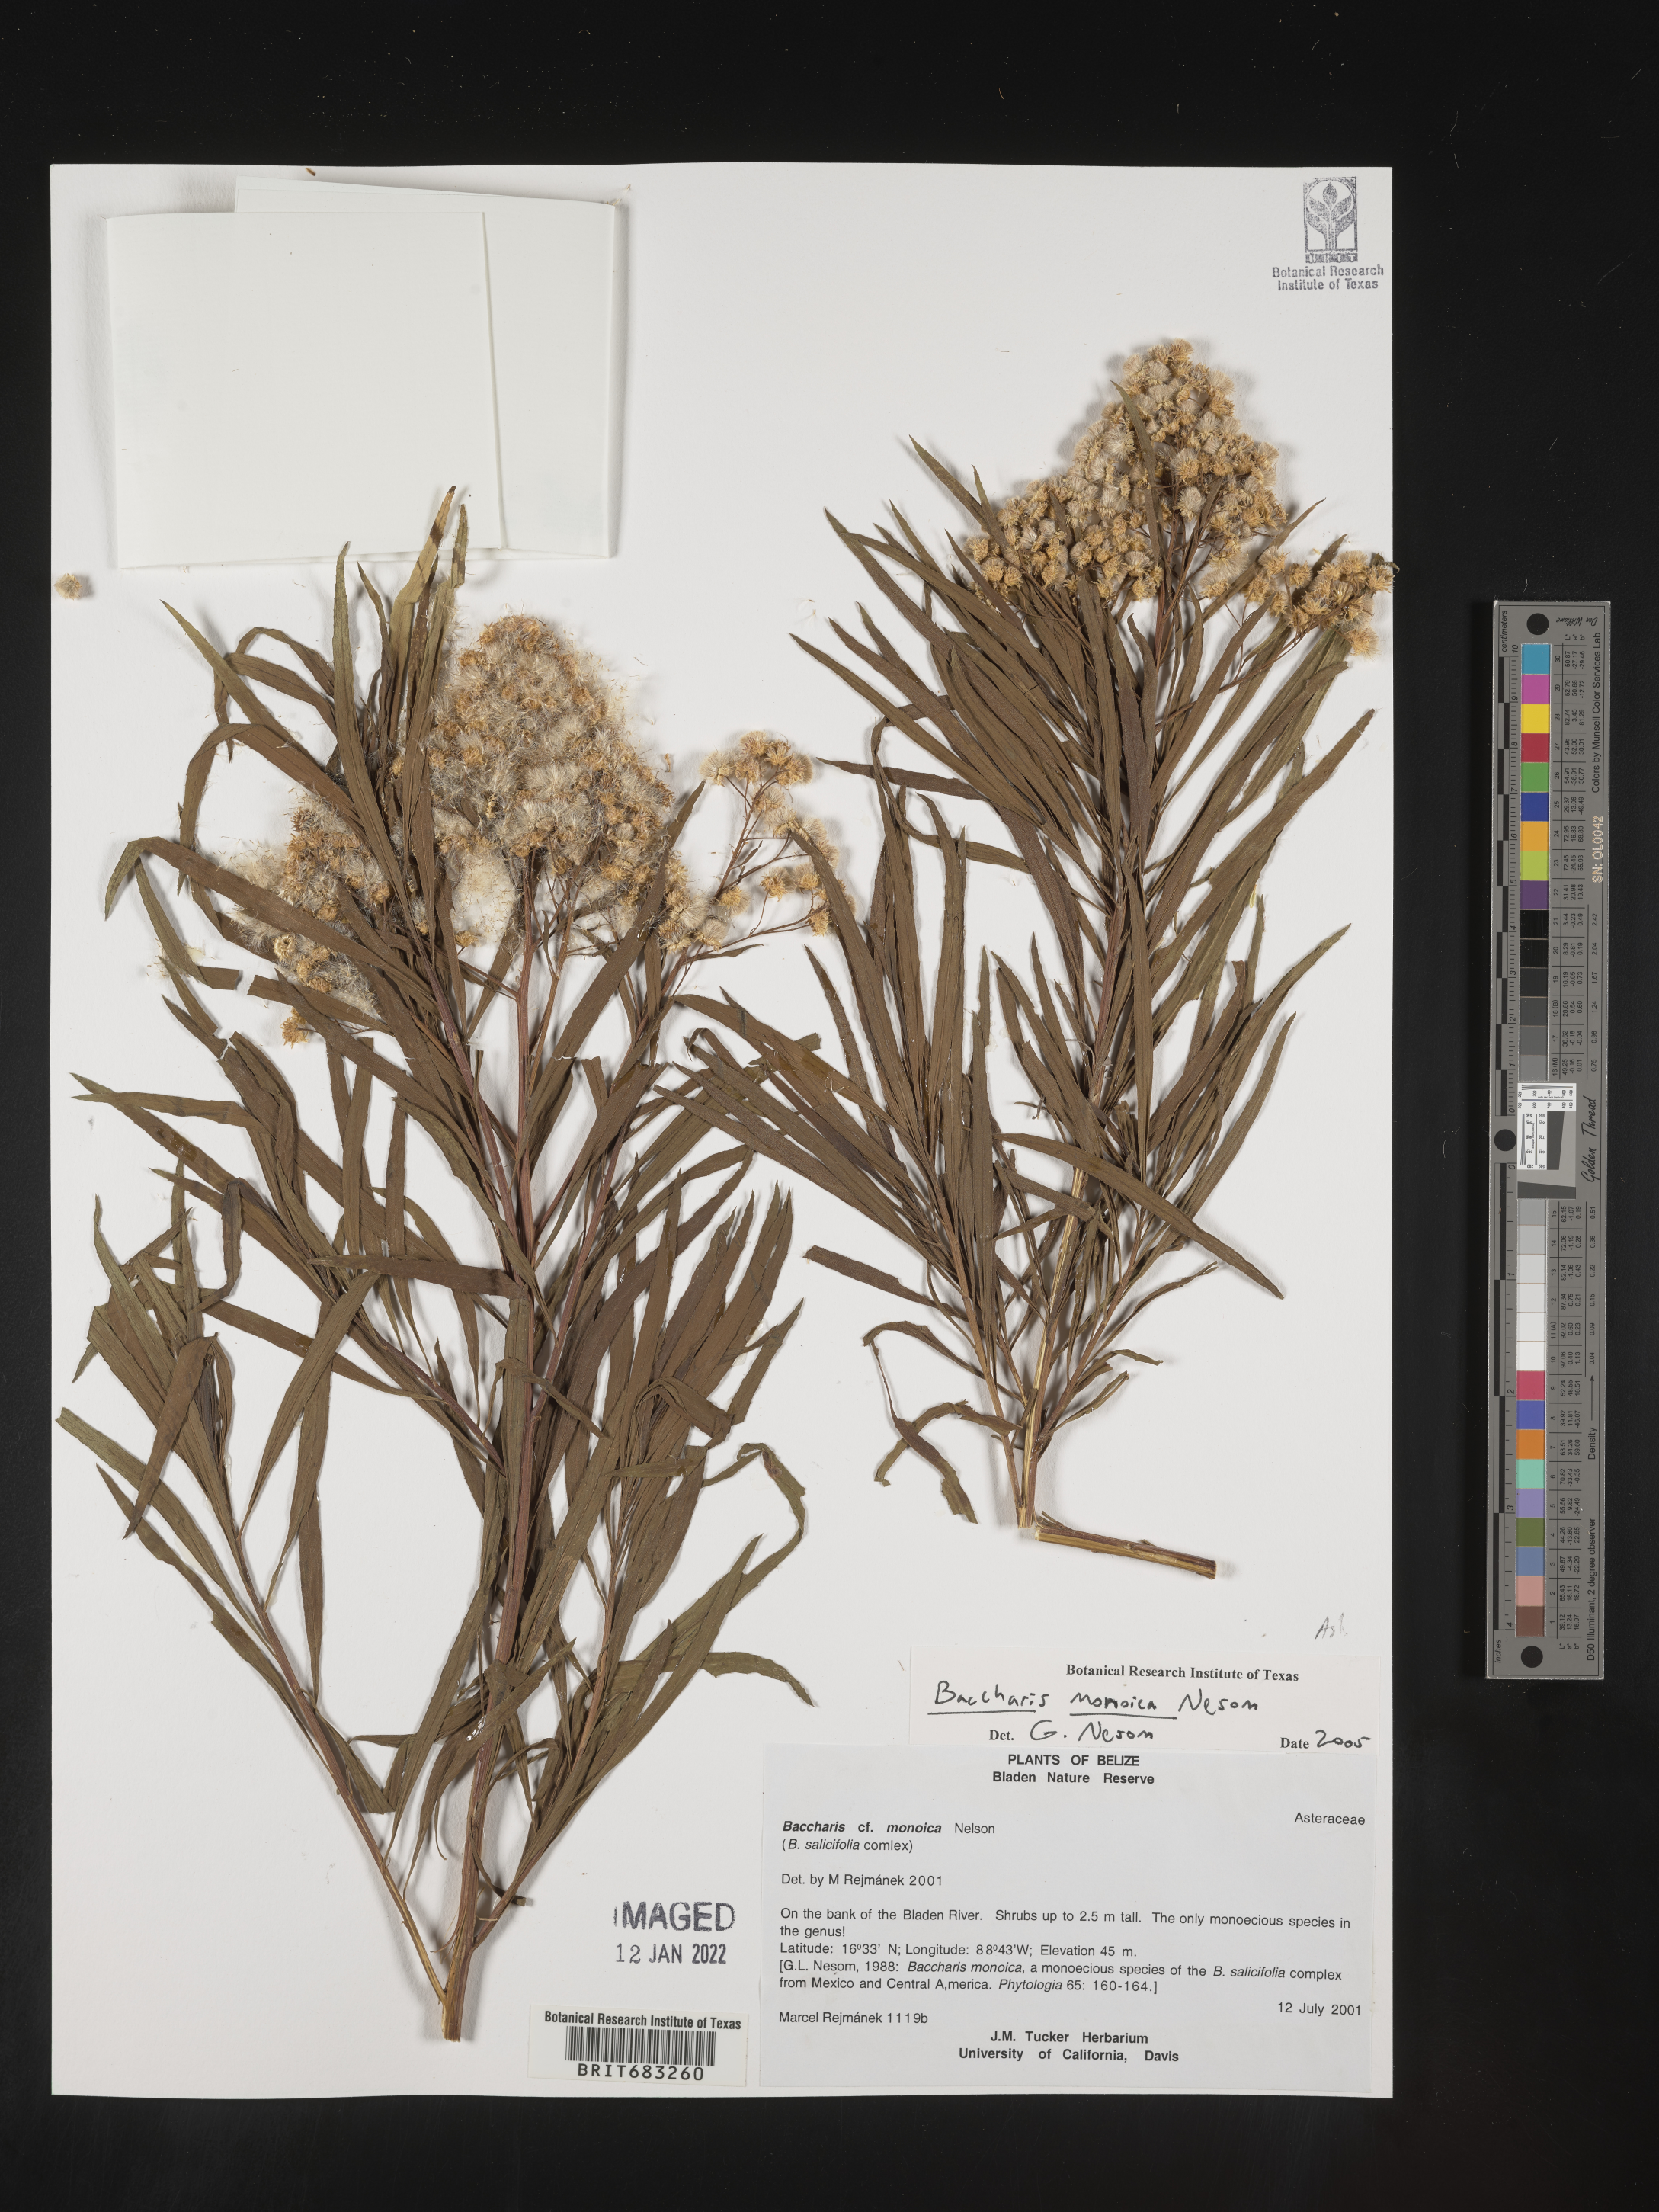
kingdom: Plantae
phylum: Tracheophyta
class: Magnoliopsida
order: Asterales
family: Asteraceae
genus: Baccharis
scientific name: Baccharis salicifolia
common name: Sticky baccharis
